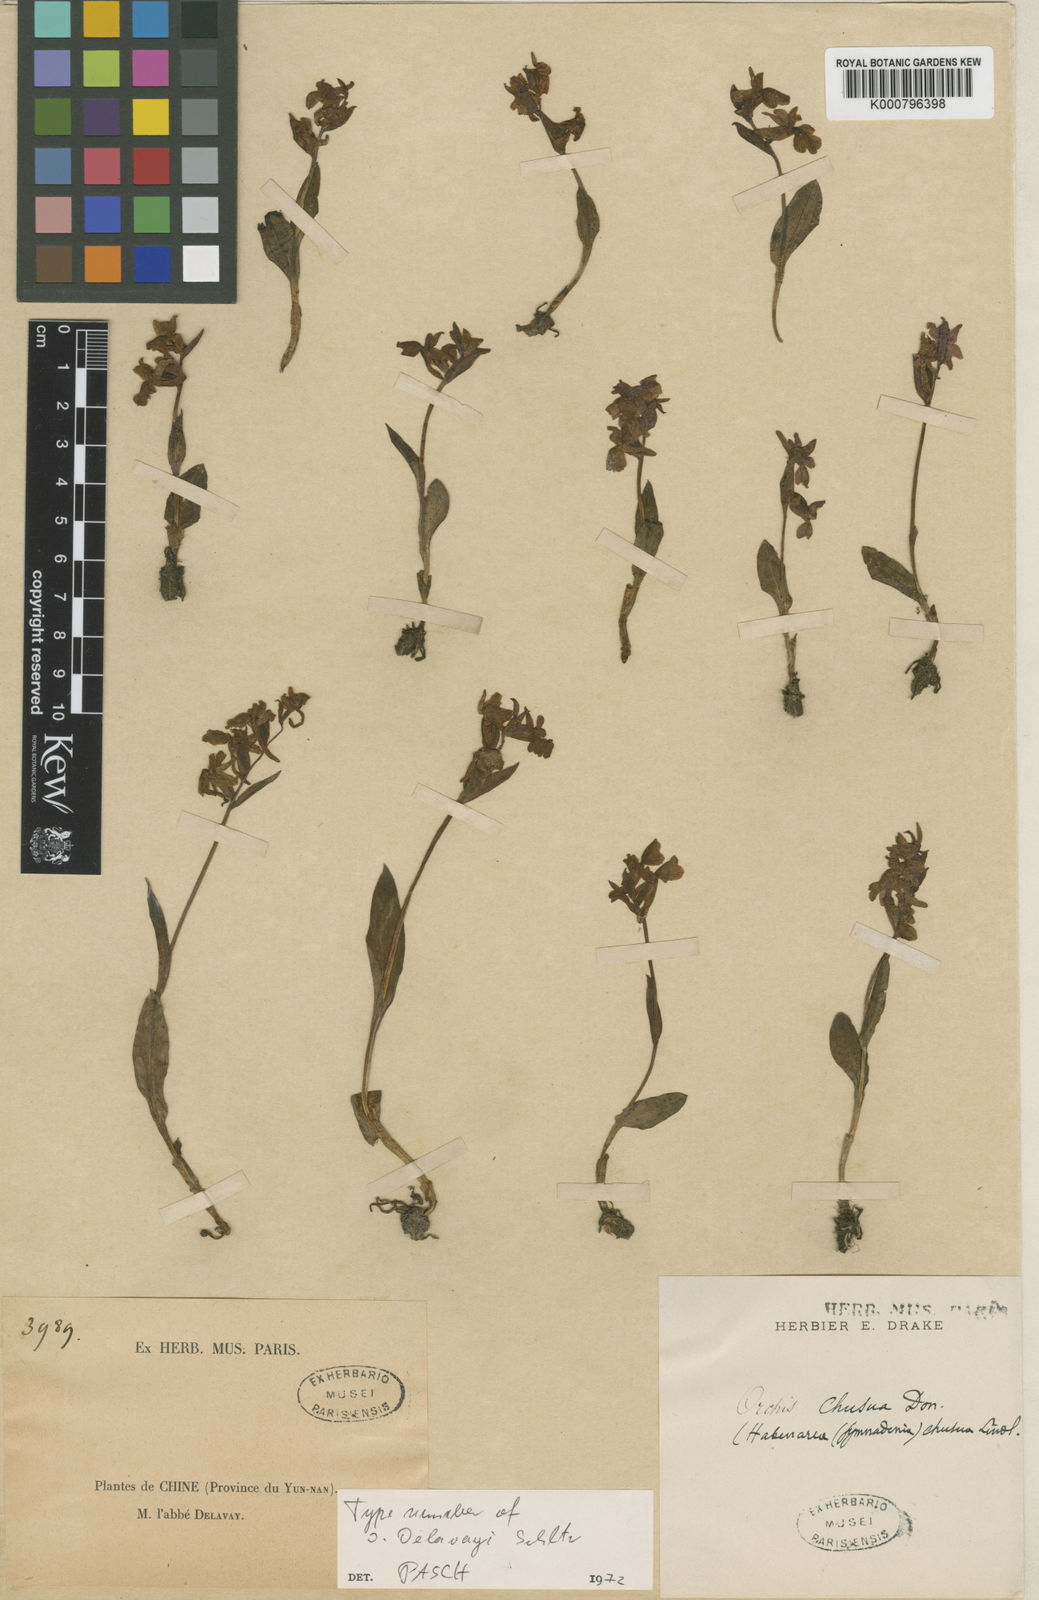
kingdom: Plantae
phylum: Tracheophyta
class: Liliopsida
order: Asparagales
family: Orchidaceae
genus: Hemipilia
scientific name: Hemipilia
